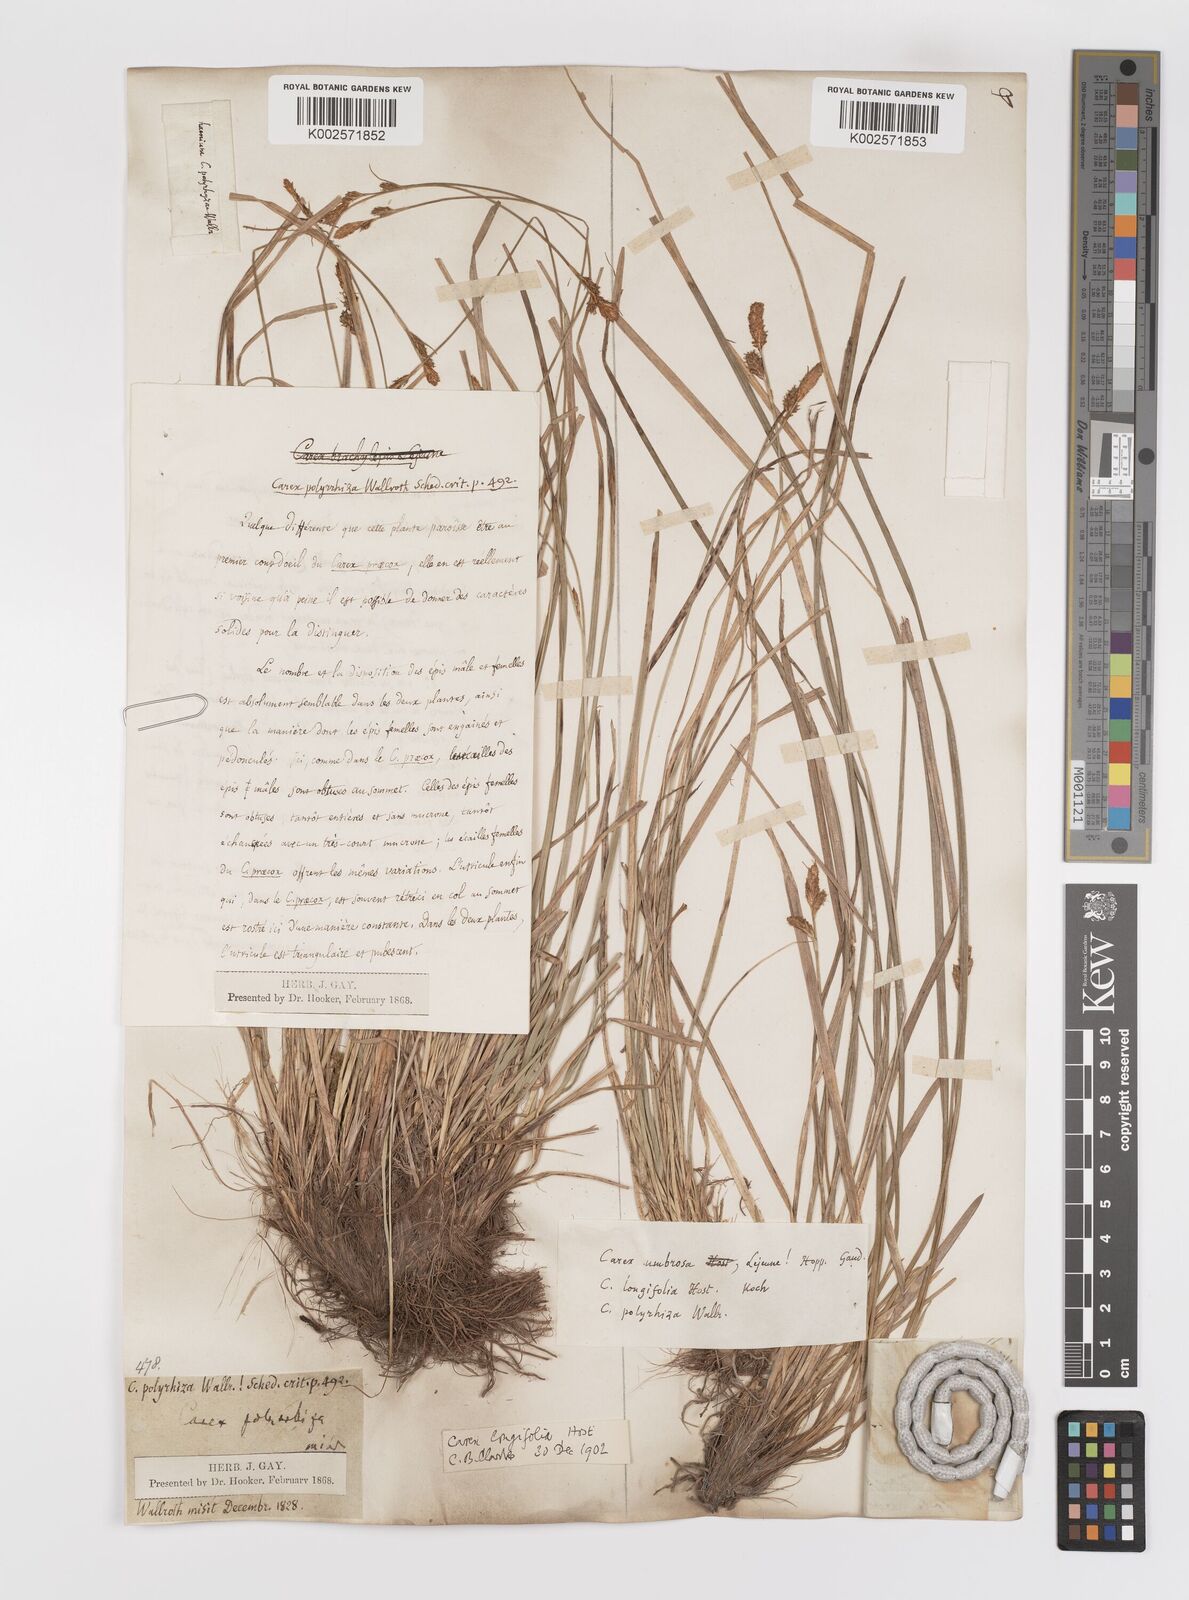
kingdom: Plantae
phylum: Tracheophyta
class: Liliopsida
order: Poales
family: Cyperaceae
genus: Carex
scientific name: Carex umbrosa
